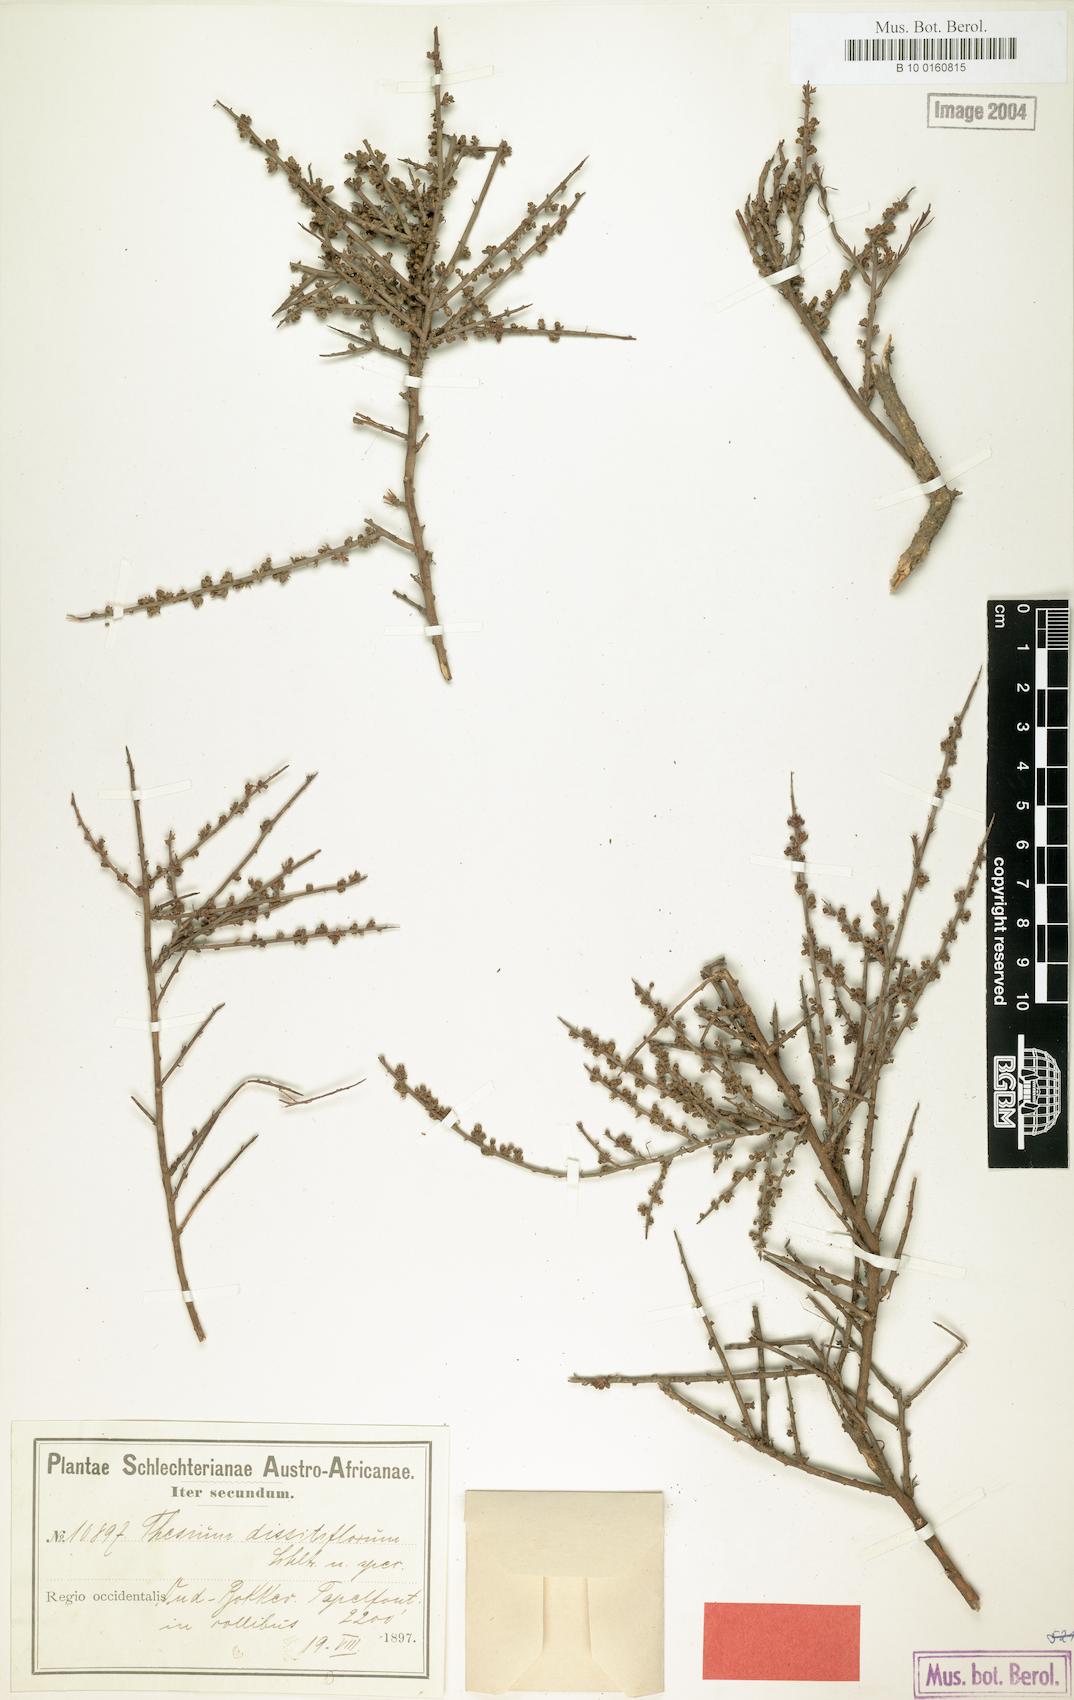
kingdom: Plantae
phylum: Tracheophyta
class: Magnoliopsida
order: Santalales
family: Thesiaceae
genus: Thesium
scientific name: Thesium dissitiflorum
